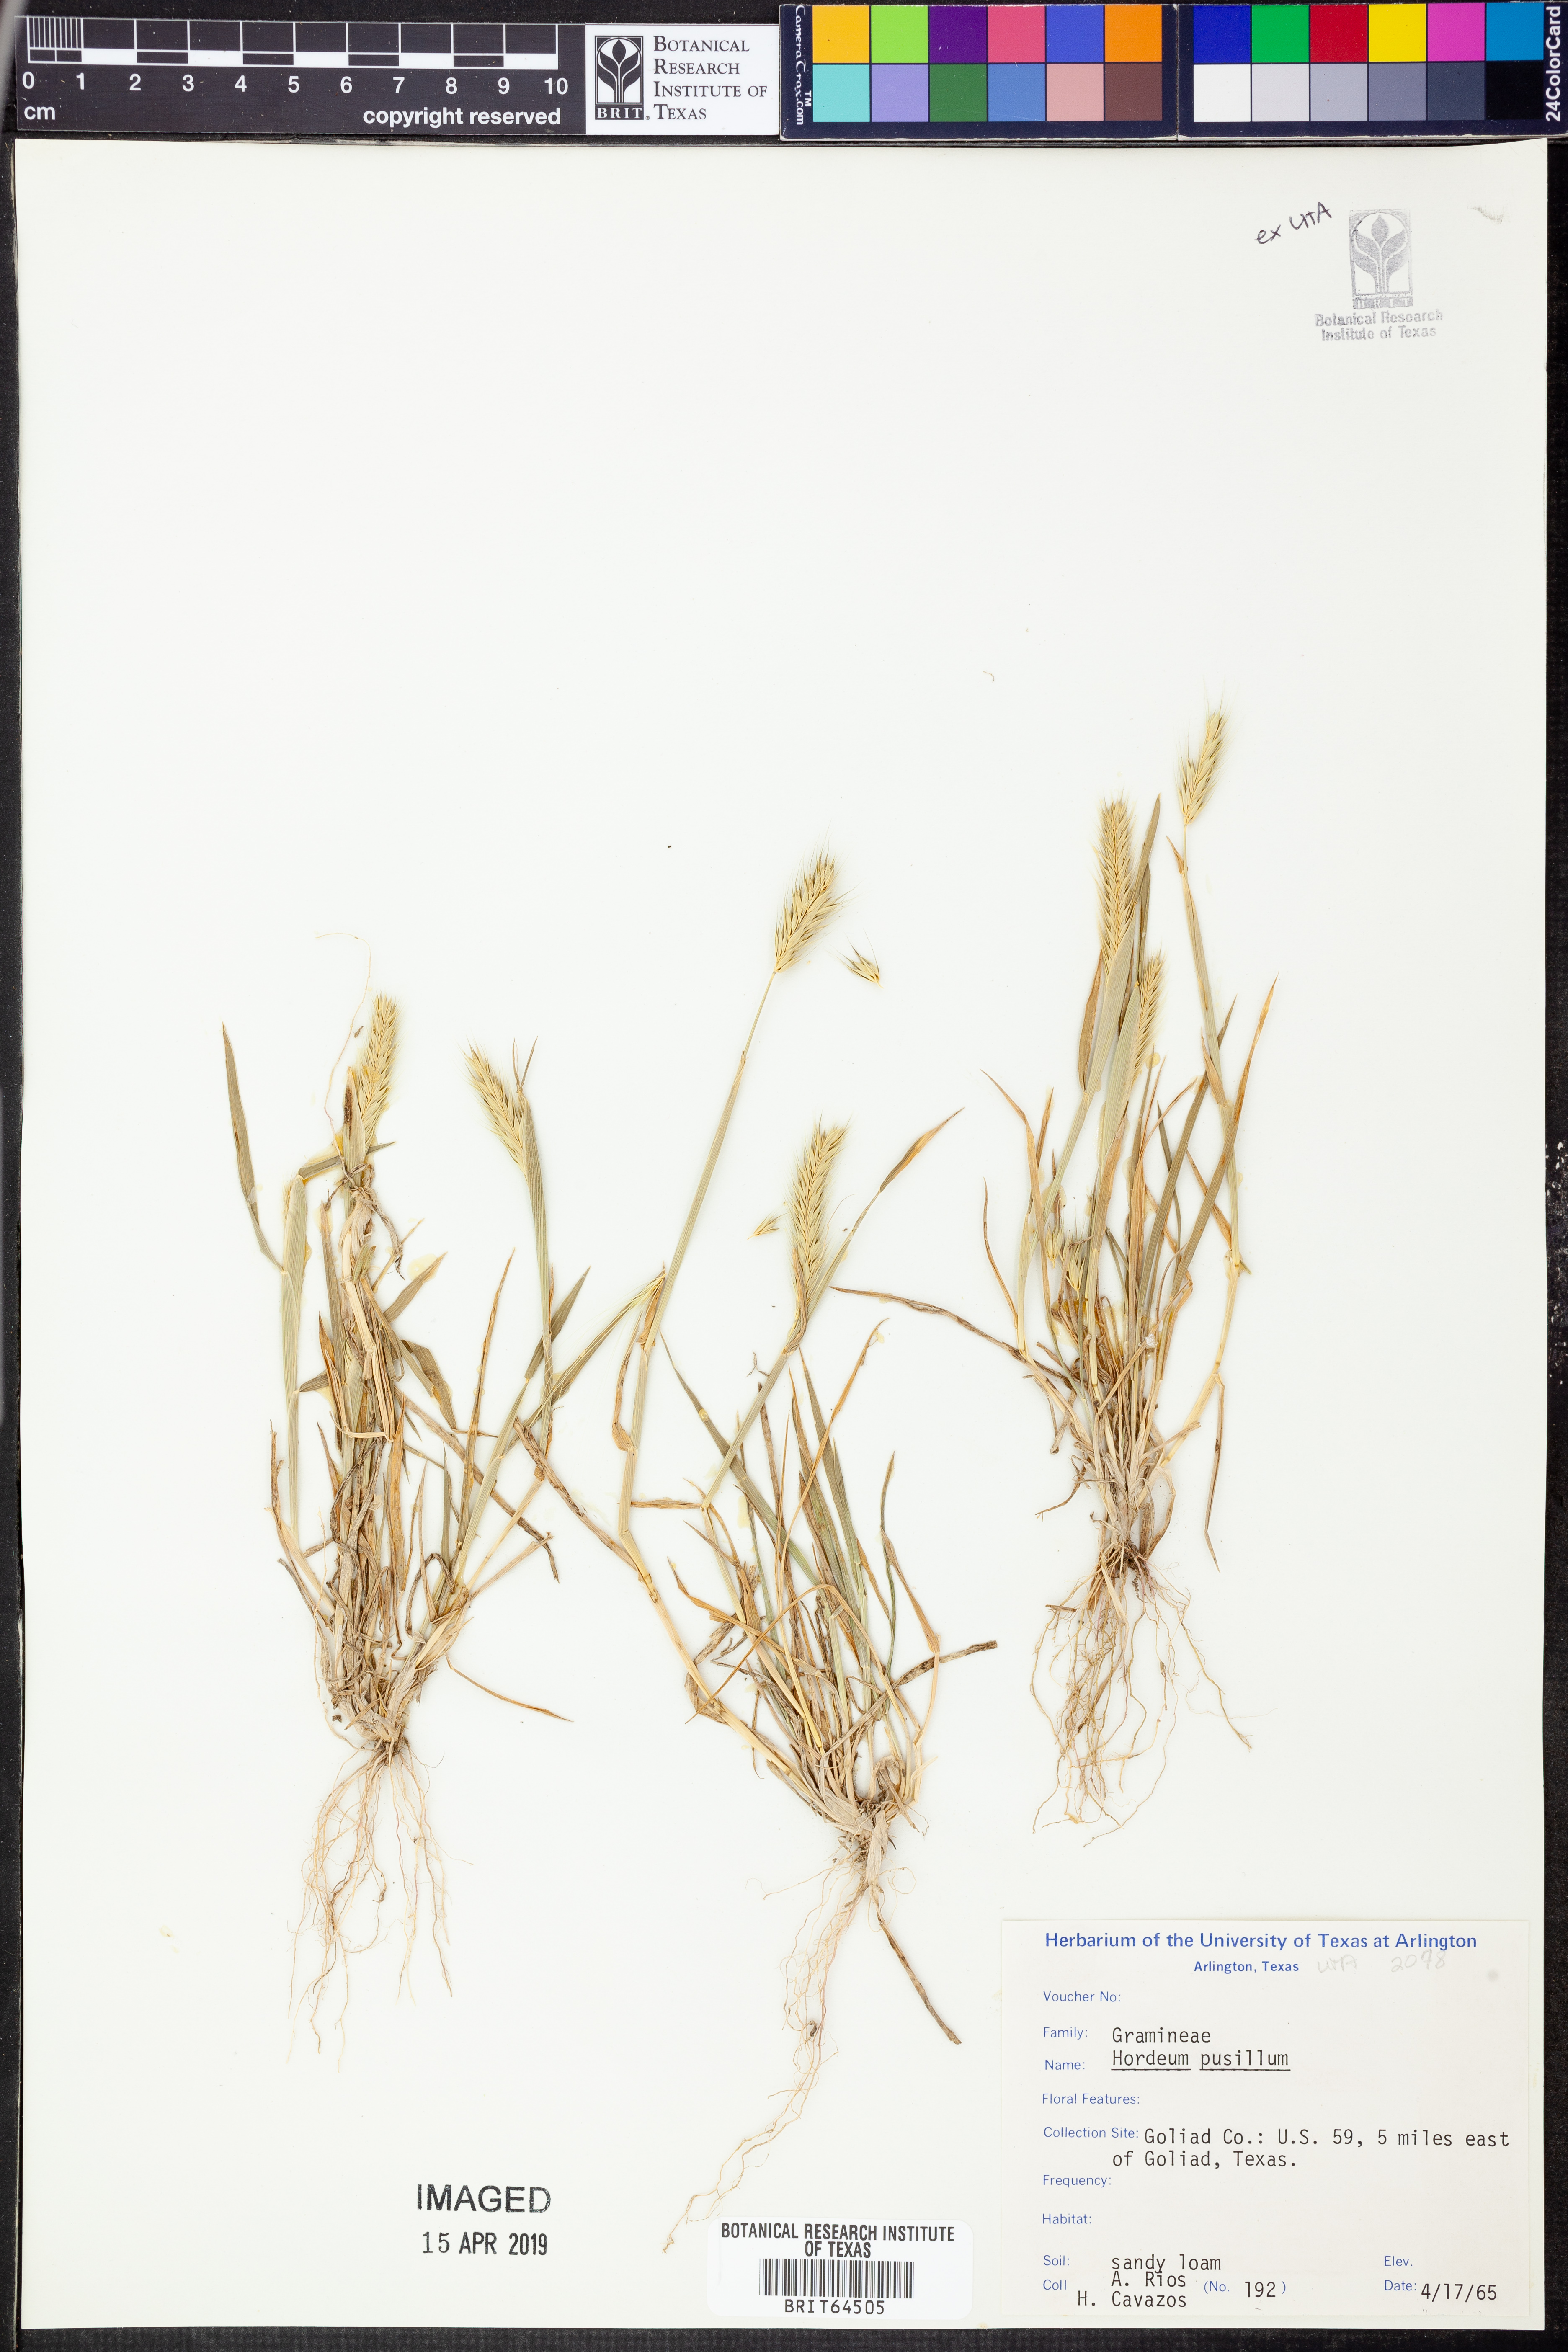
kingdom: Plantae
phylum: Tracheophyta
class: Liliopsida
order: Poales
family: Poaceae
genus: Hordeum
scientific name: Hordeum pusillum
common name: Little barley
